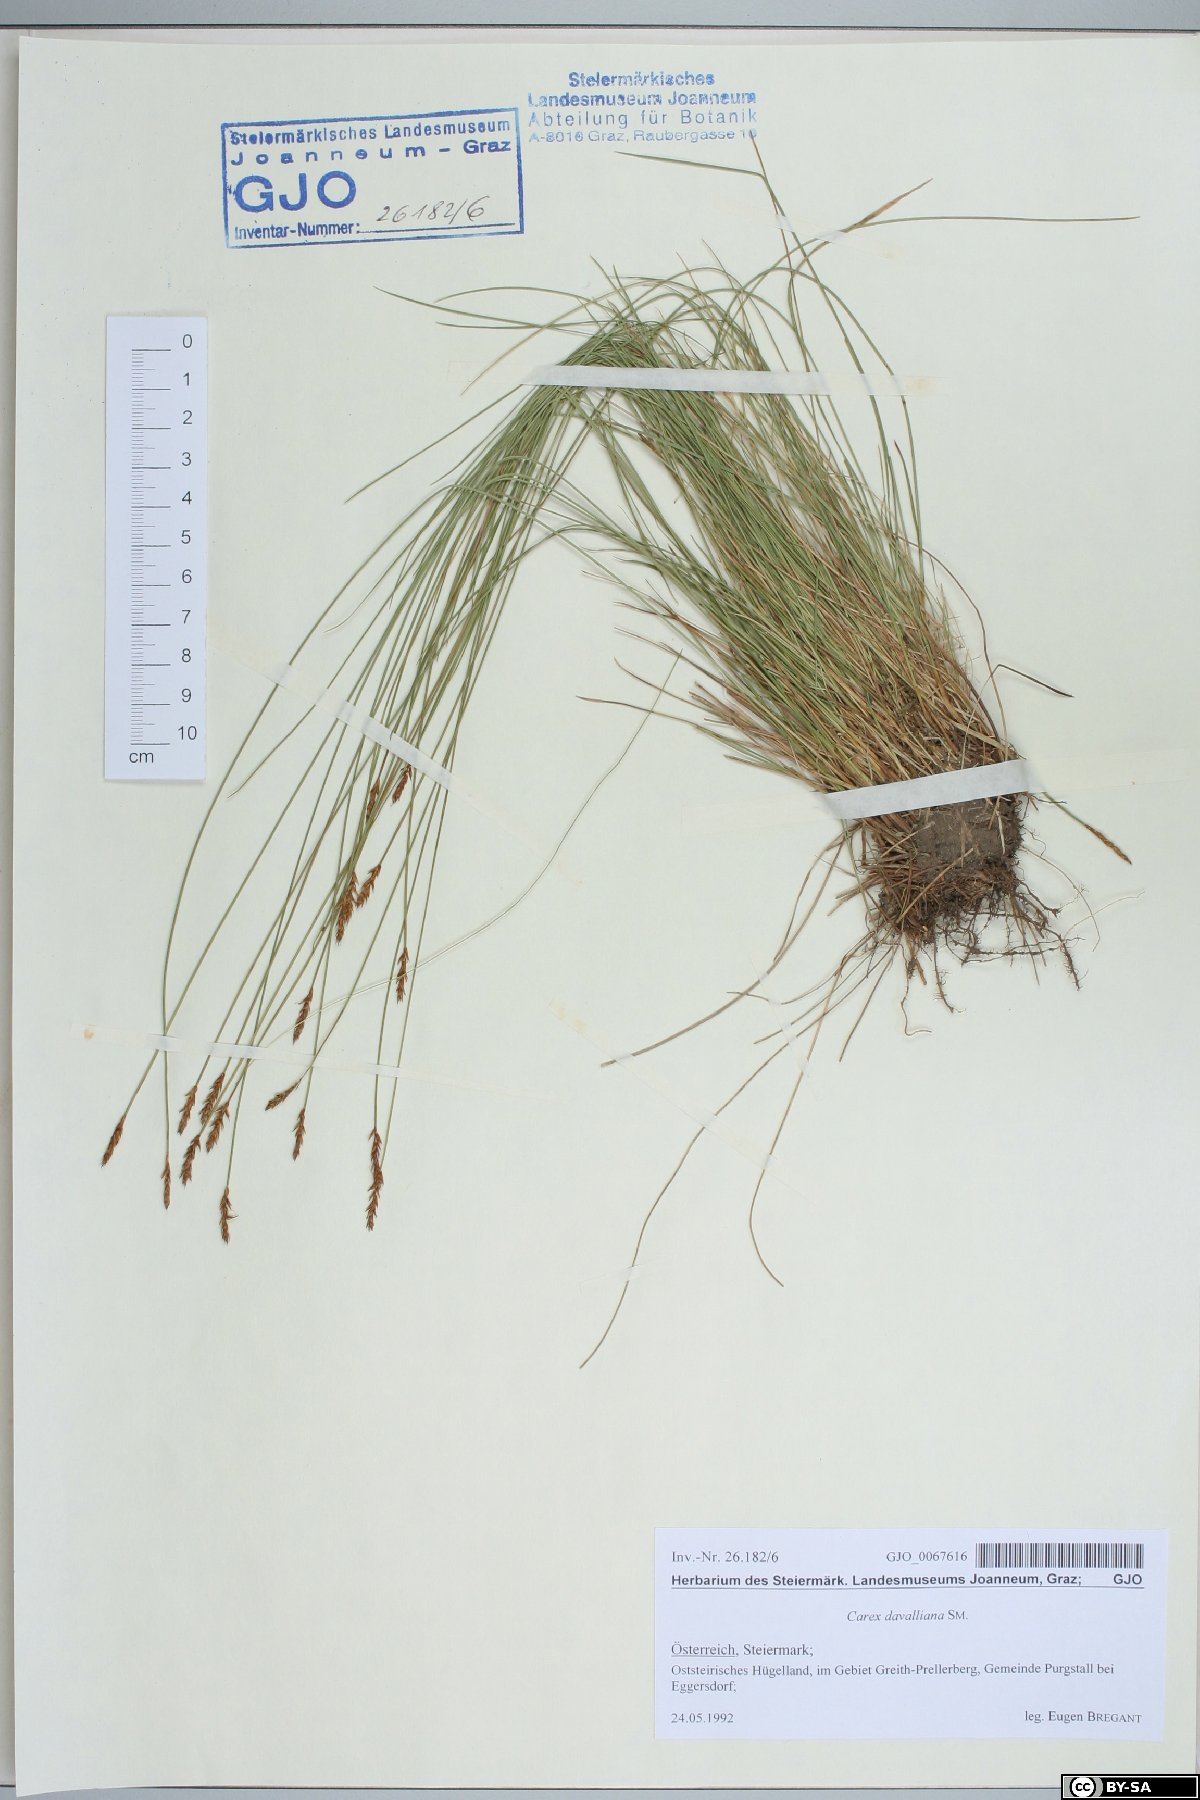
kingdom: Plantae
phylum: Tracheophyta
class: Liliopsida
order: Poales
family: Cyperaceae
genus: Carex
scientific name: Carex davalliana
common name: Davall's sedge
